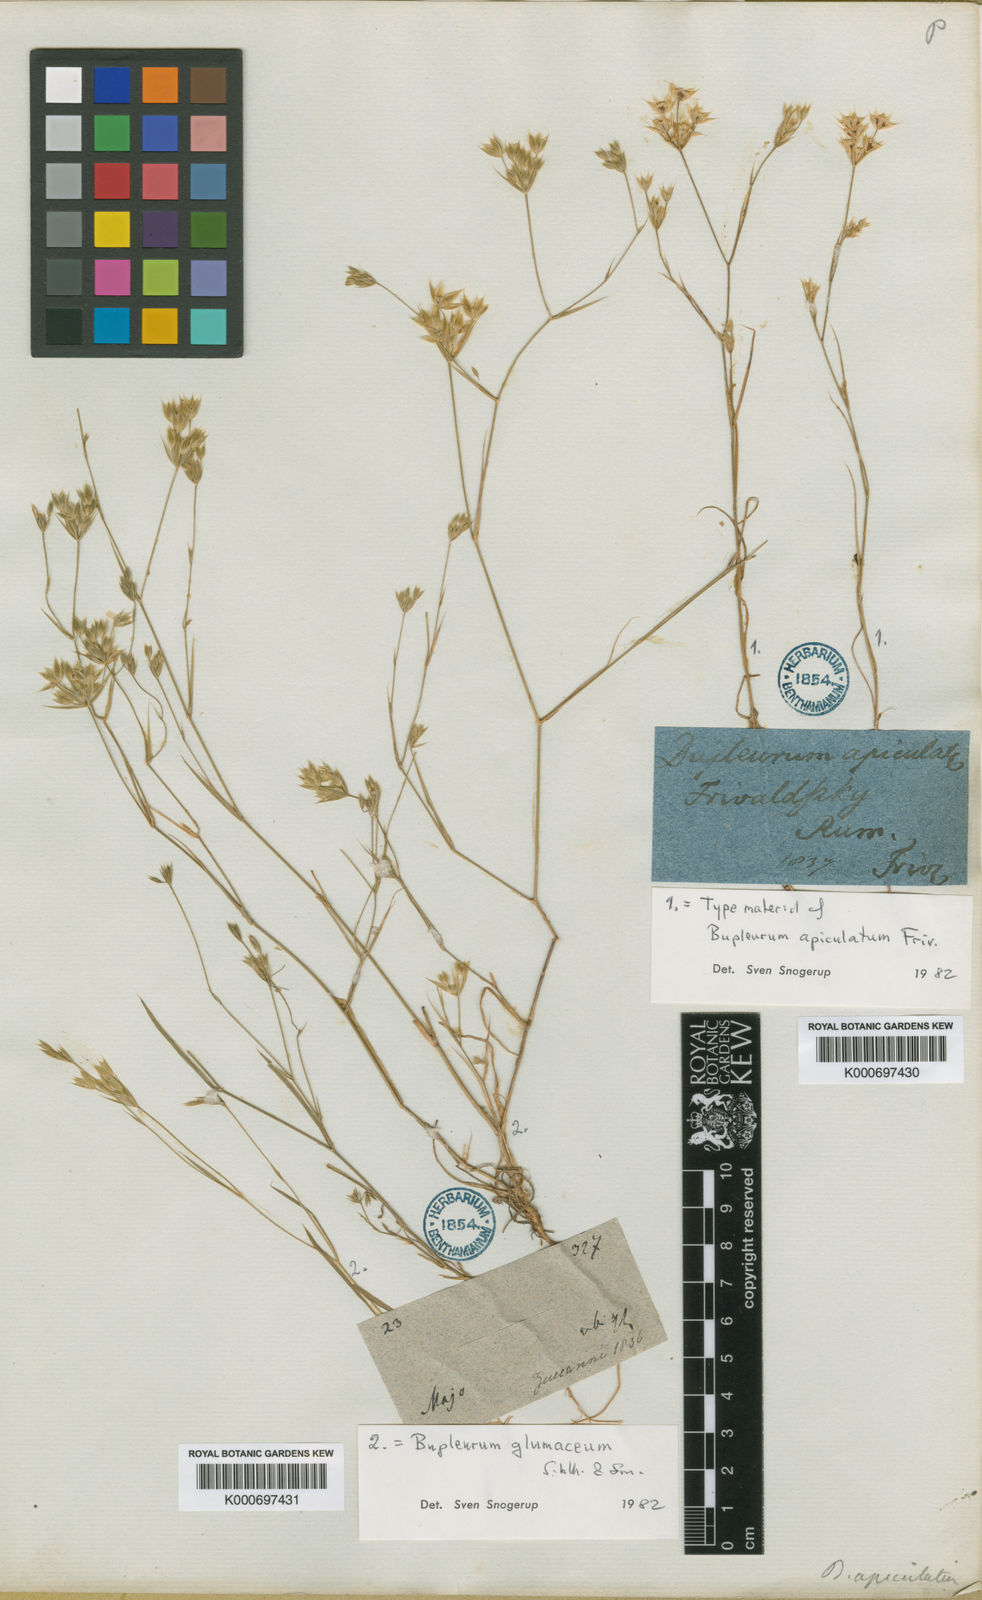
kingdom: Plantae
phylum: Tracheophyta
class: Magnoliopsida
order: Apiales
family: Apiaceae
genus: Bupleurum
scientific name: Bupleurum apiculatum
